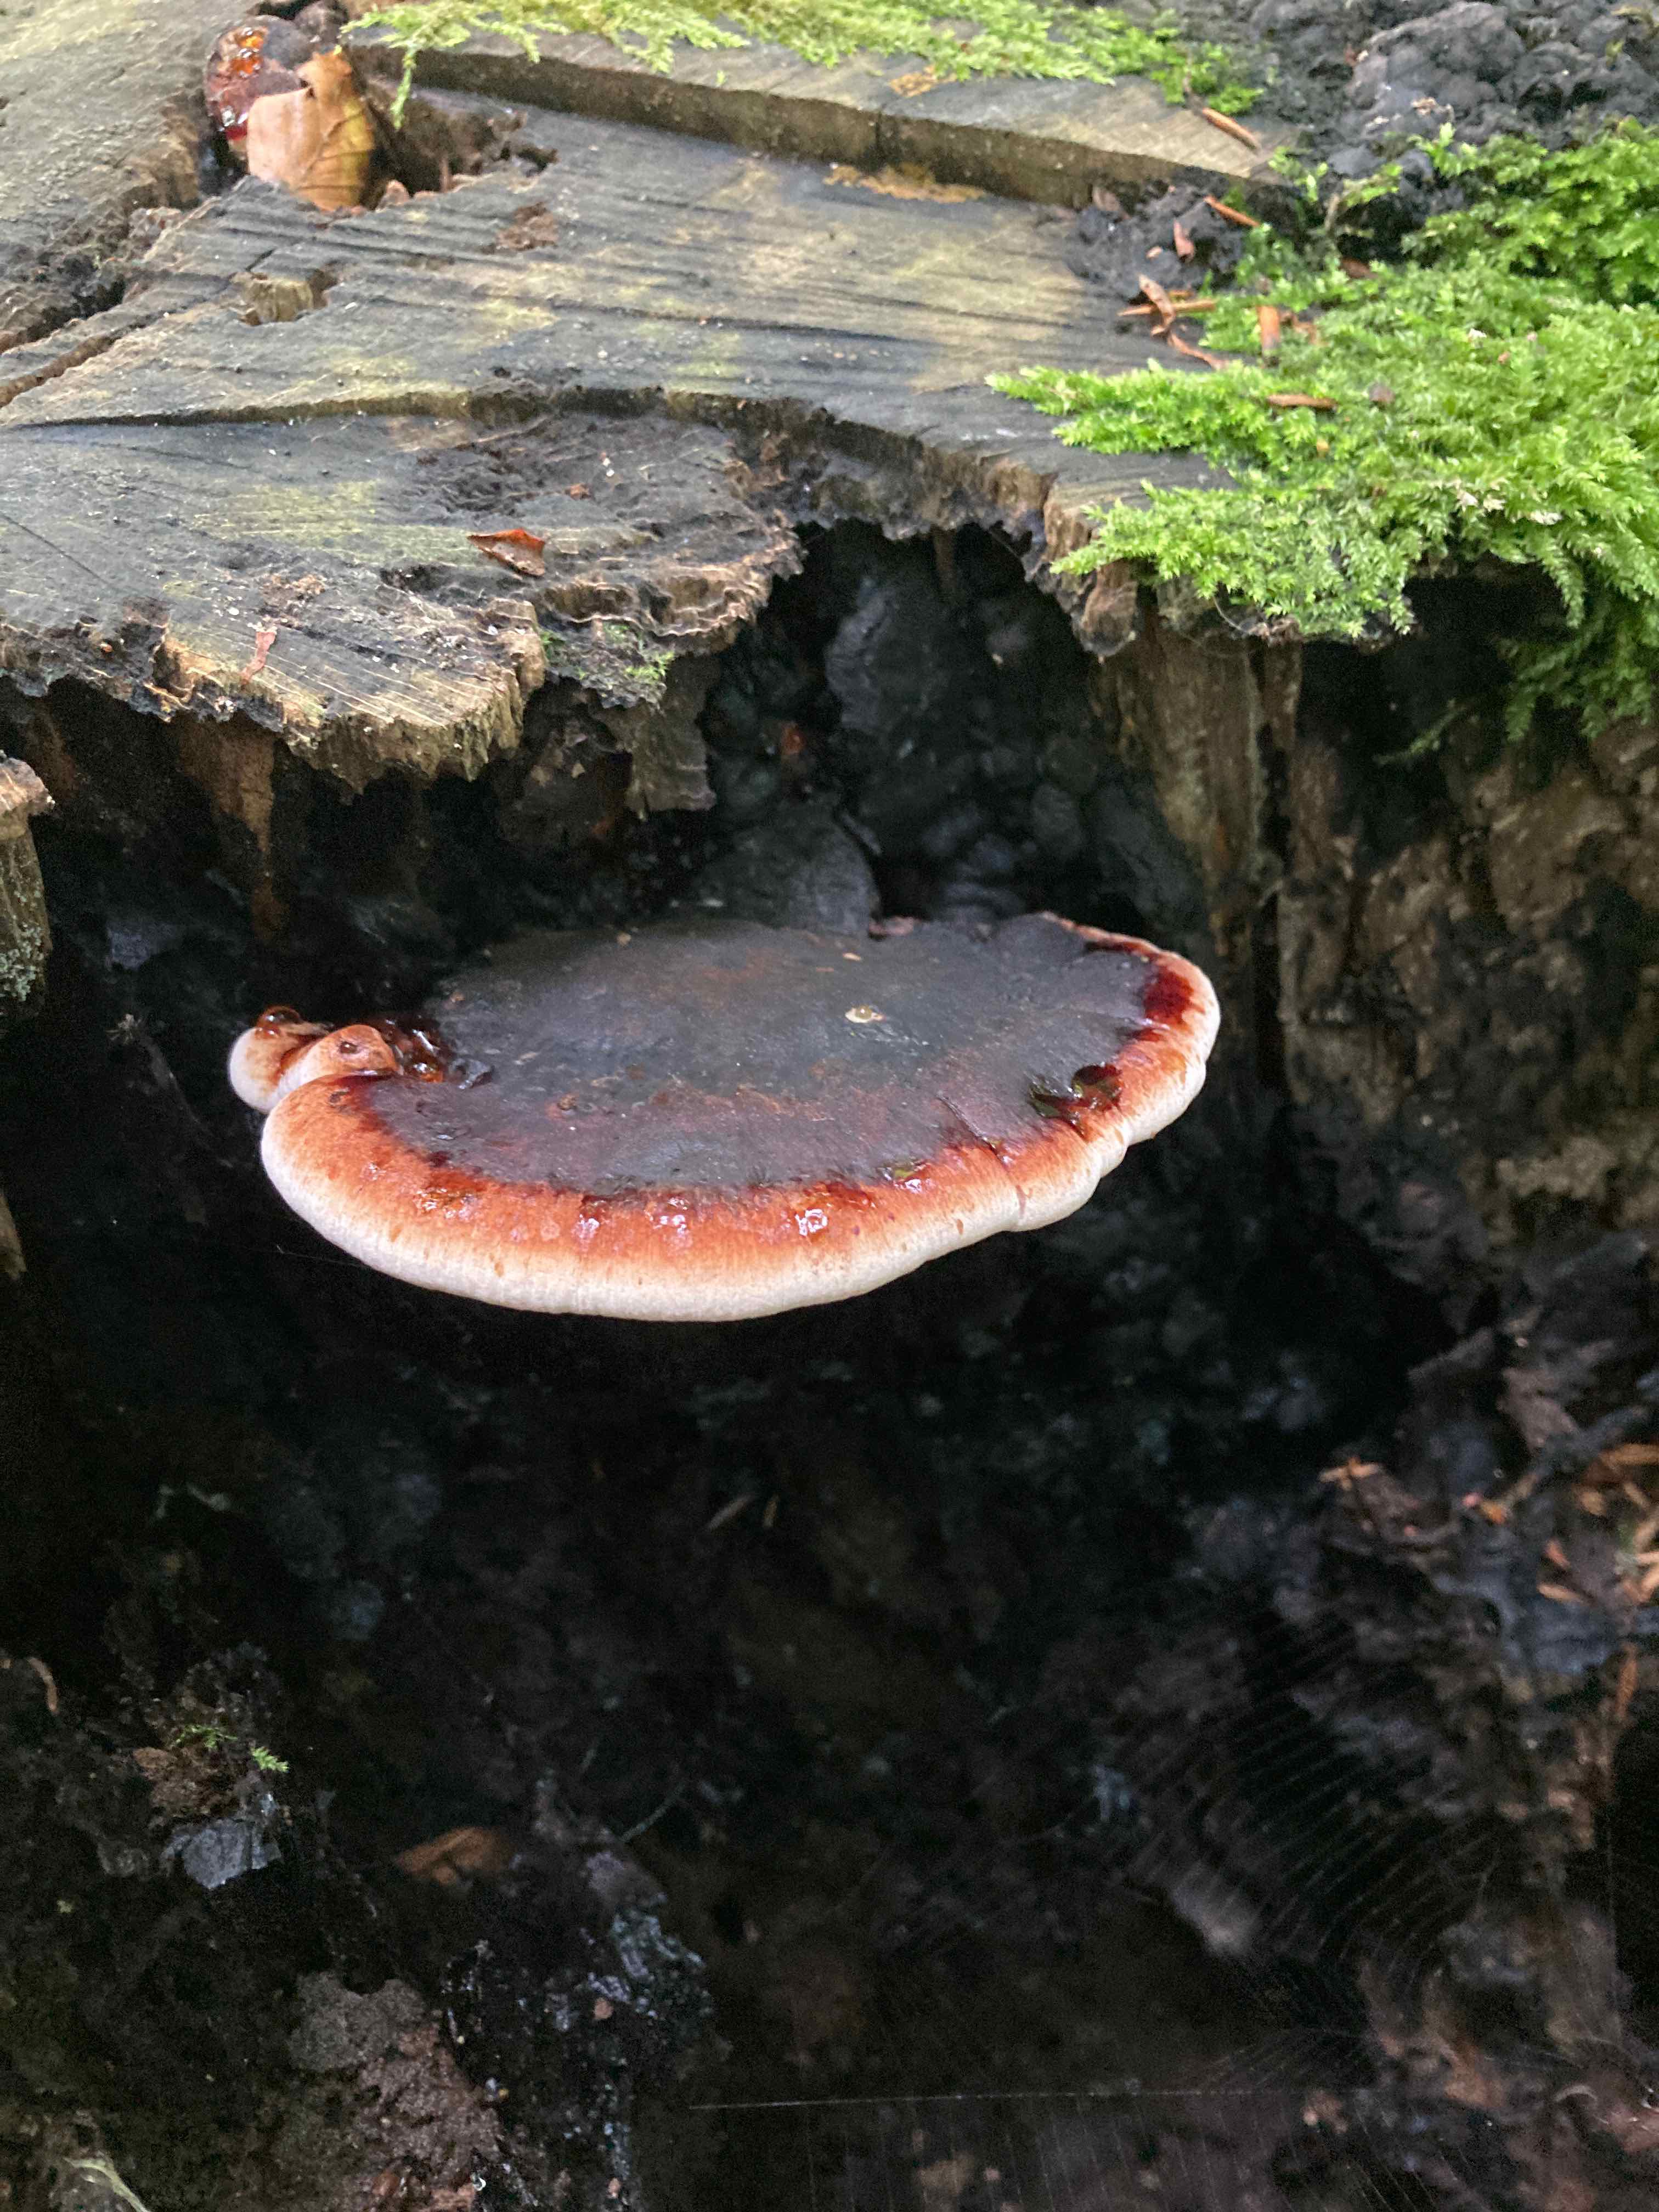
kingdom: Fungi
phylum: Basidiomycota
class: Agaricomycetes
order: Polyporales
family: Ischnodermataceae
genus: Ischnoderma
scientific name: Ischnoderma resinosum
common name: løv-tjæreporesvamp
